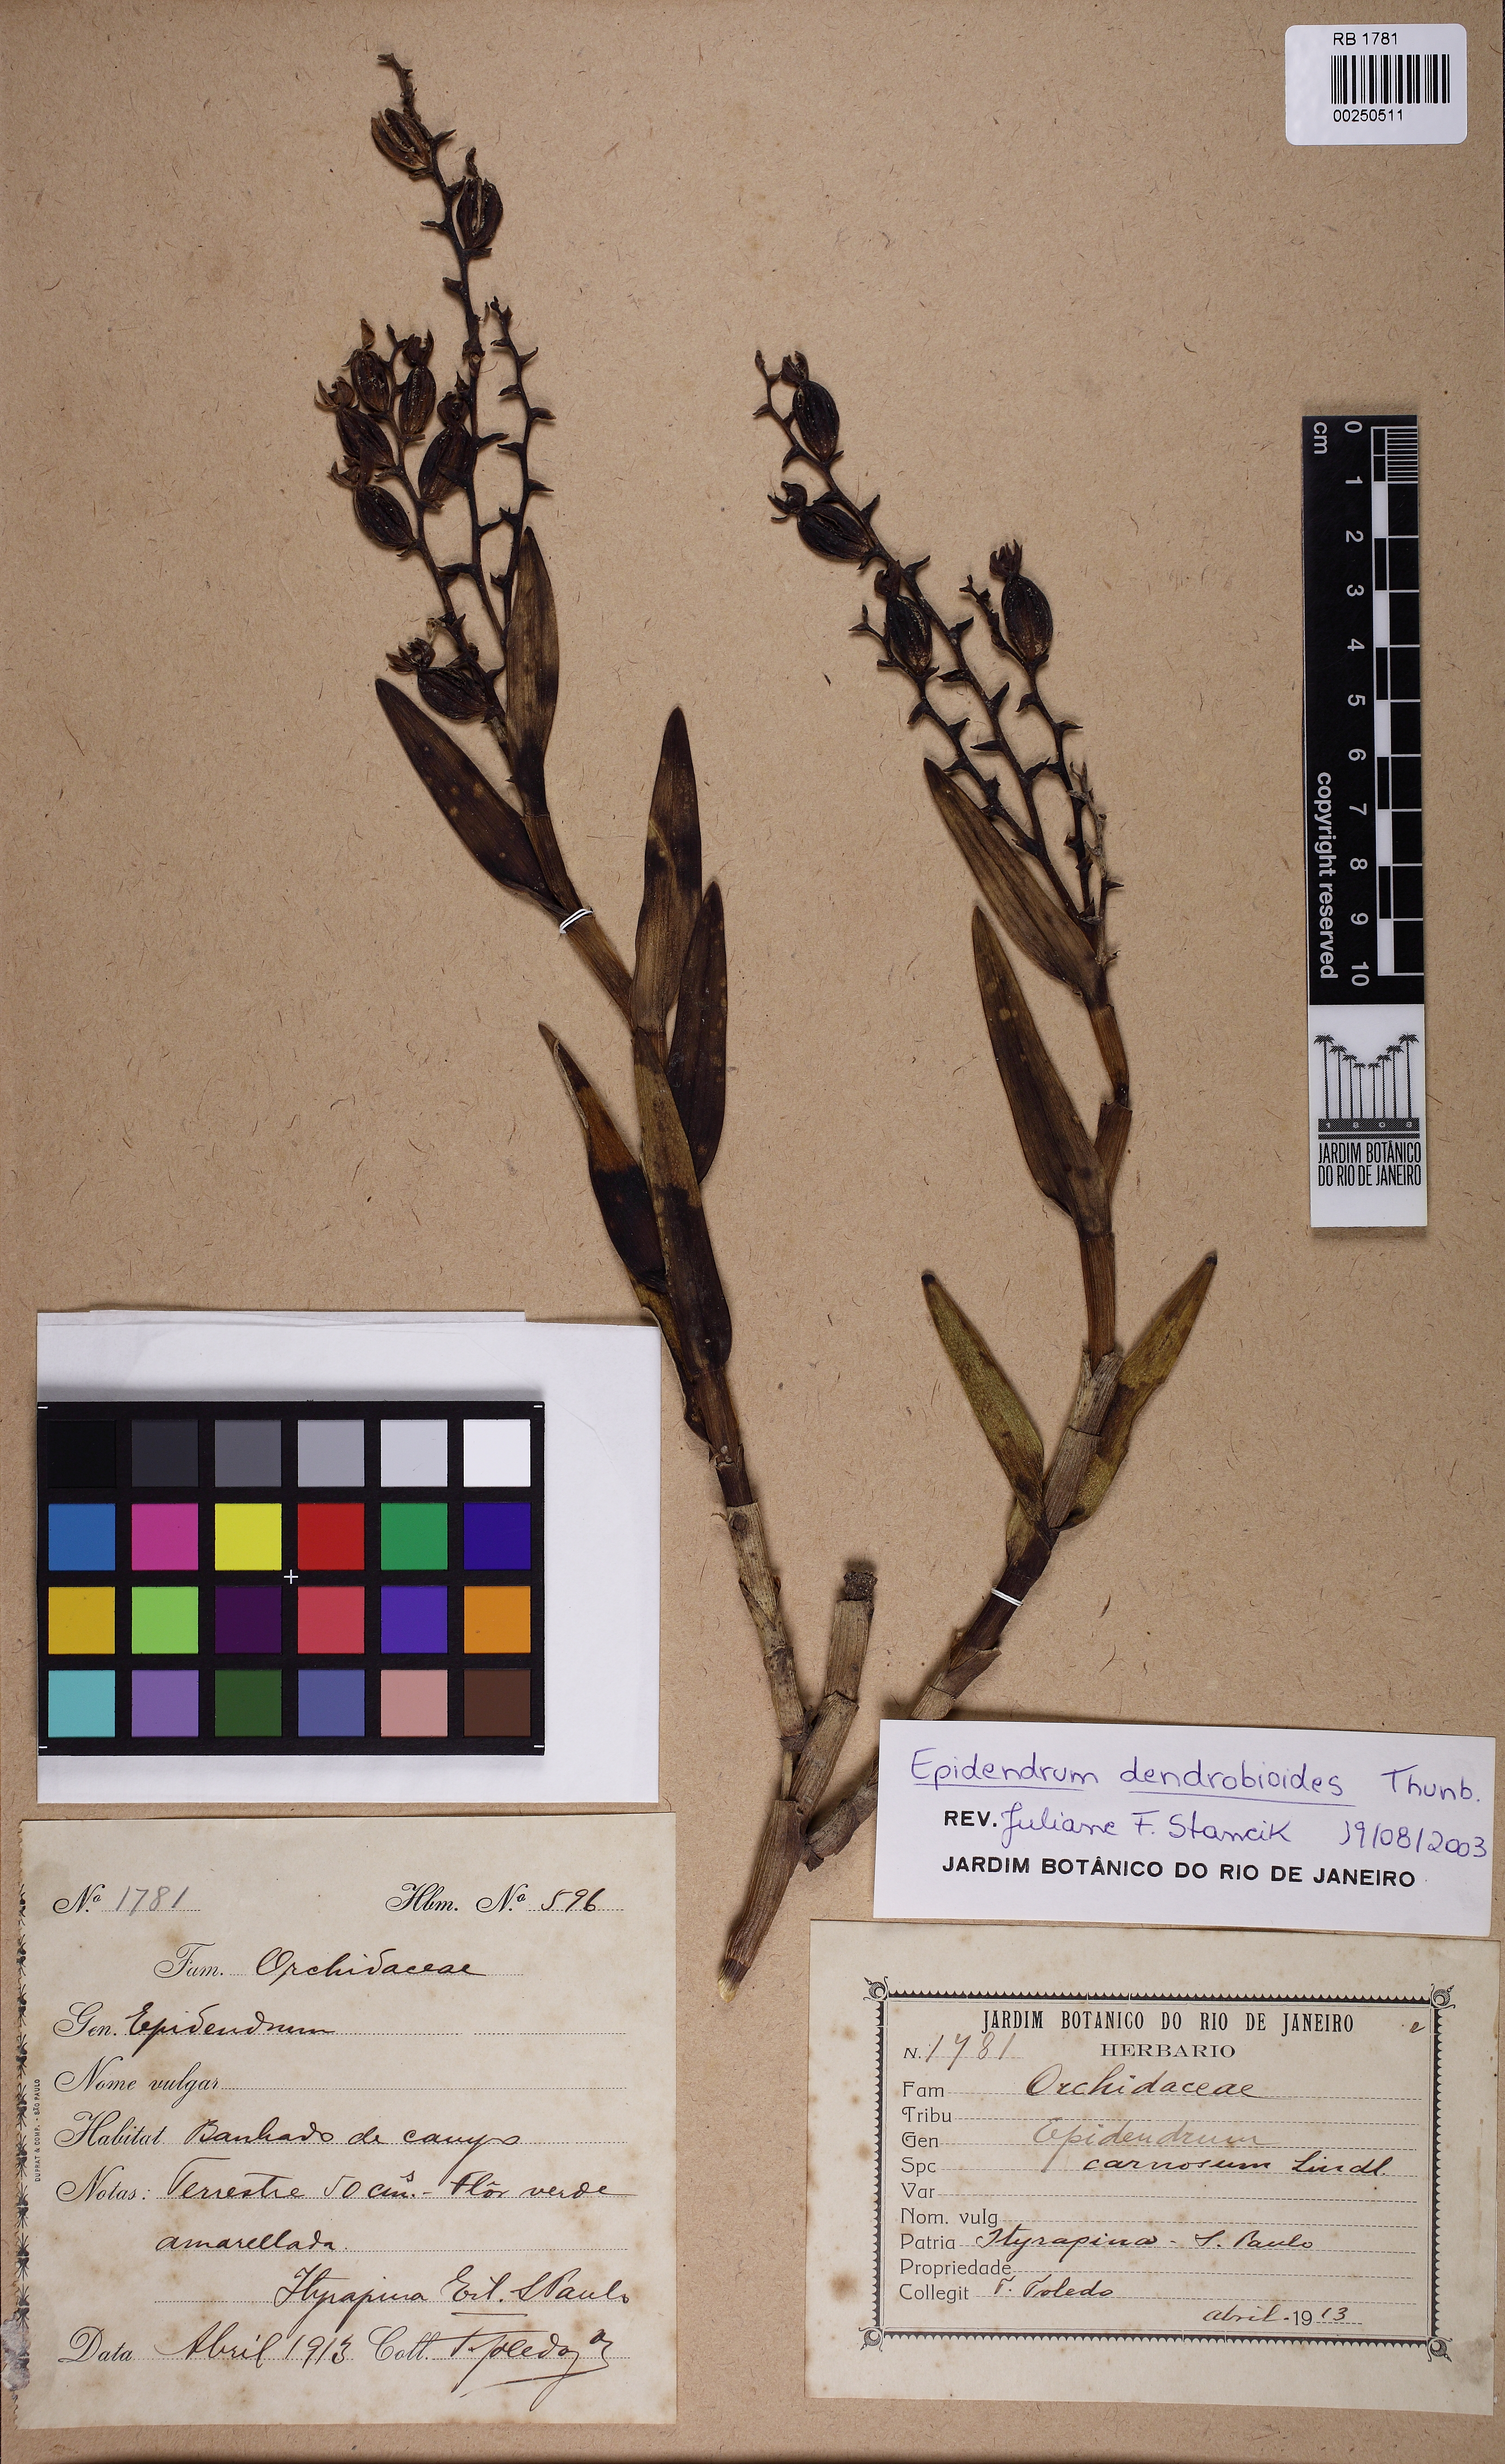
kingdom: Plantae
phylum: Tracheophyta
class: Liliopsida
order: Asparagales
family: Orchidaceae
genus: Epidendrum
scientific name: Epidendrum dendrobioides
